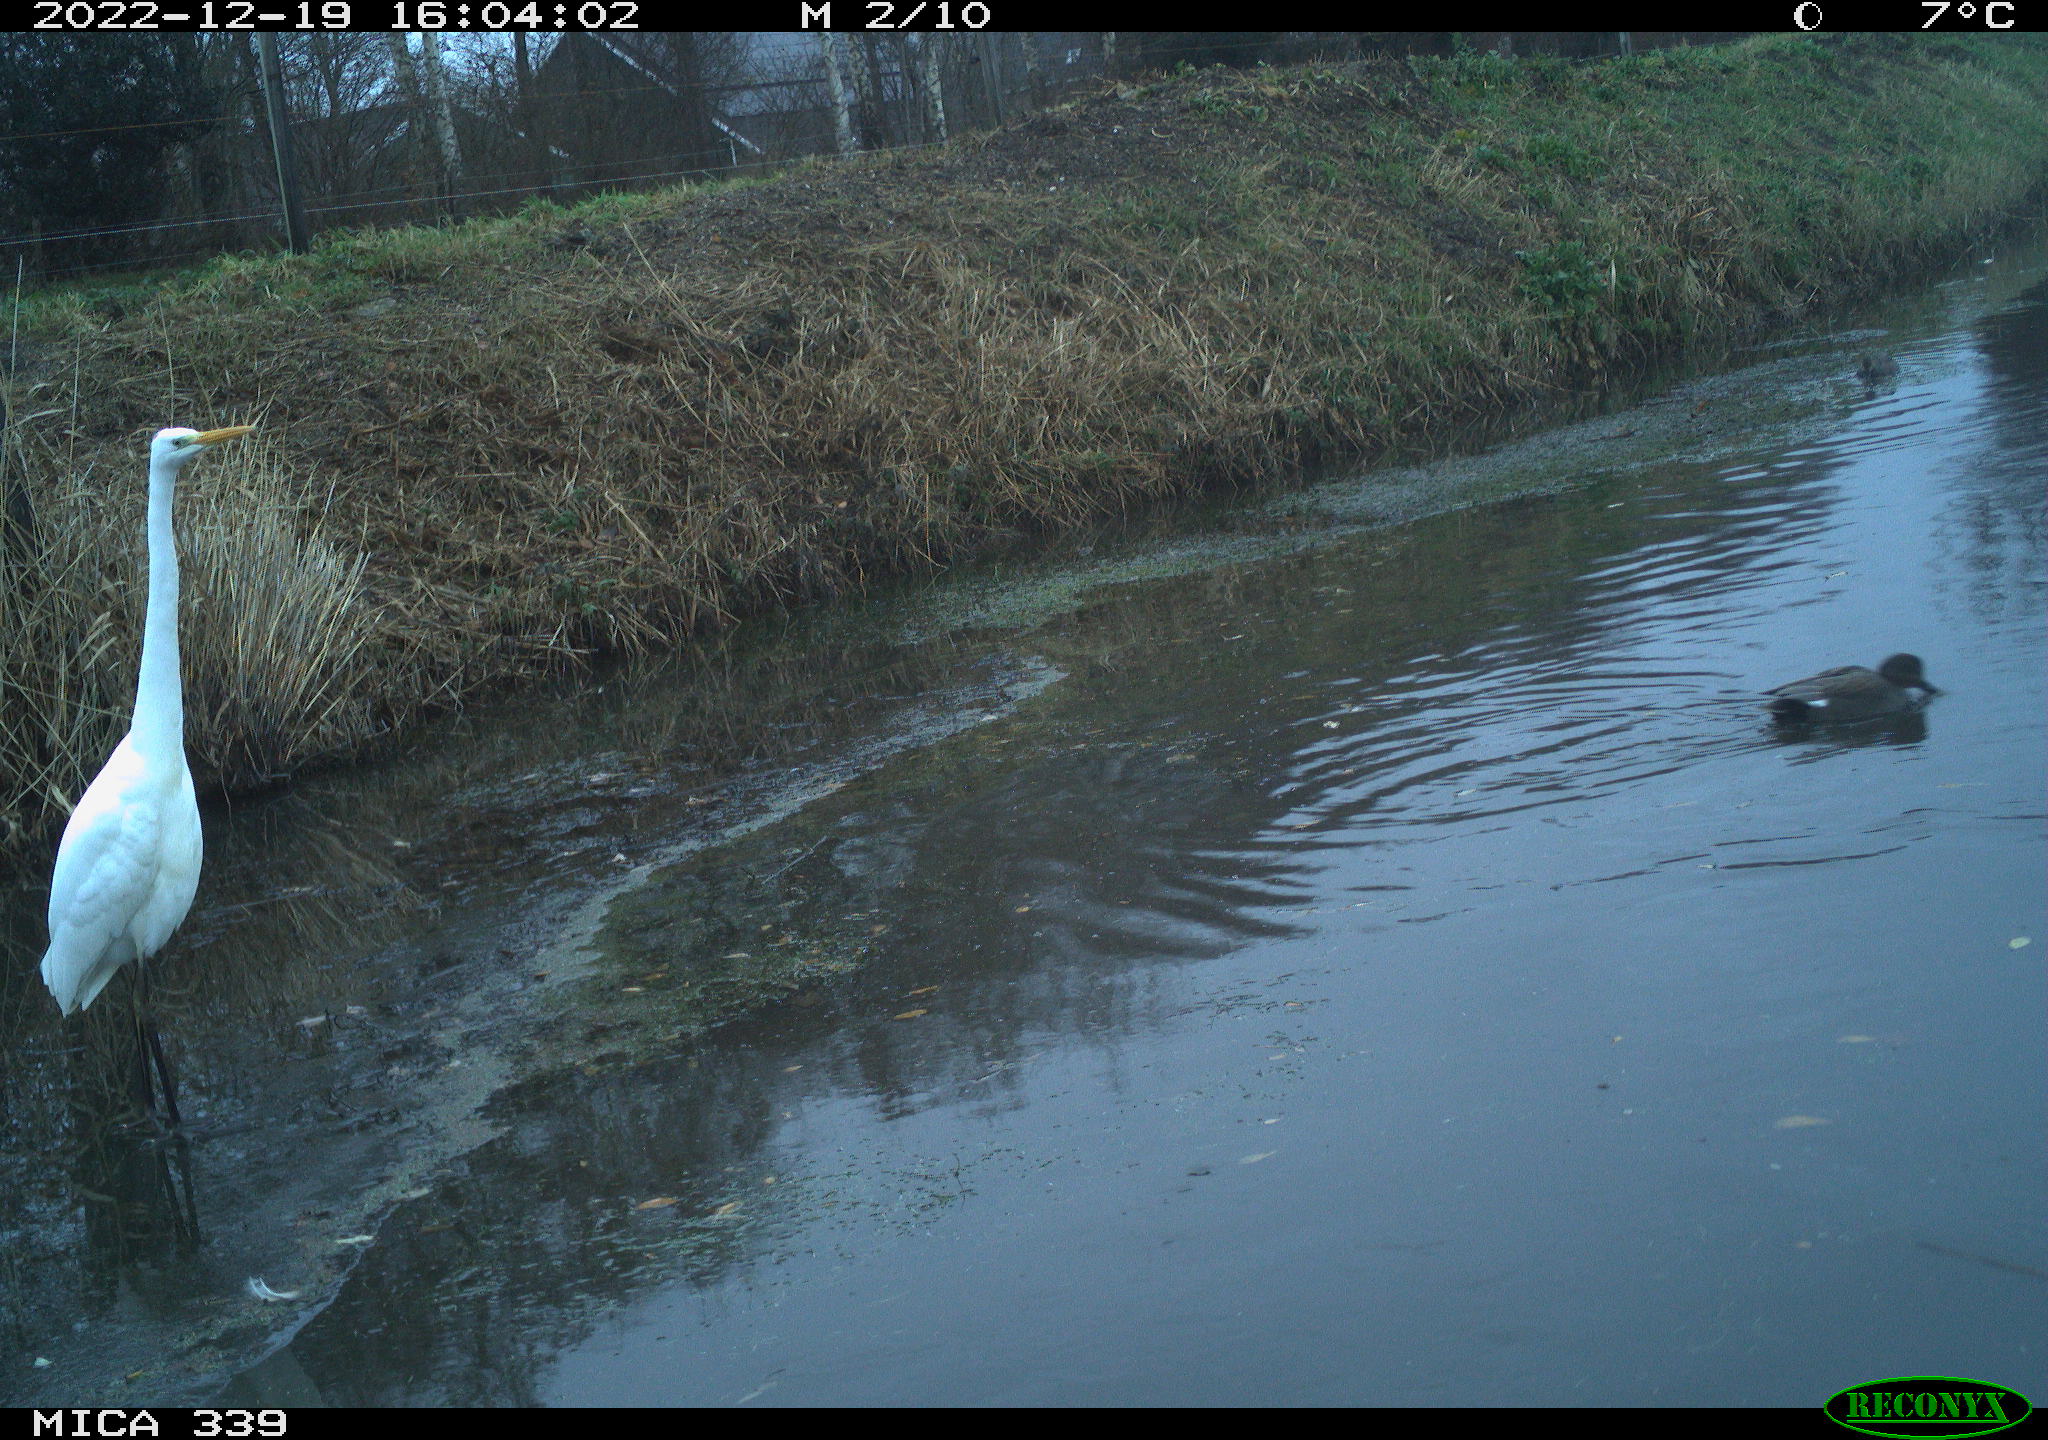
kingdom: Animalia
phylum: Chordata
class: Aves
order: Anseriformes
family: Anatidae
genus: Mareca
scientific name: Mareca strepera
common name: Gadwall
